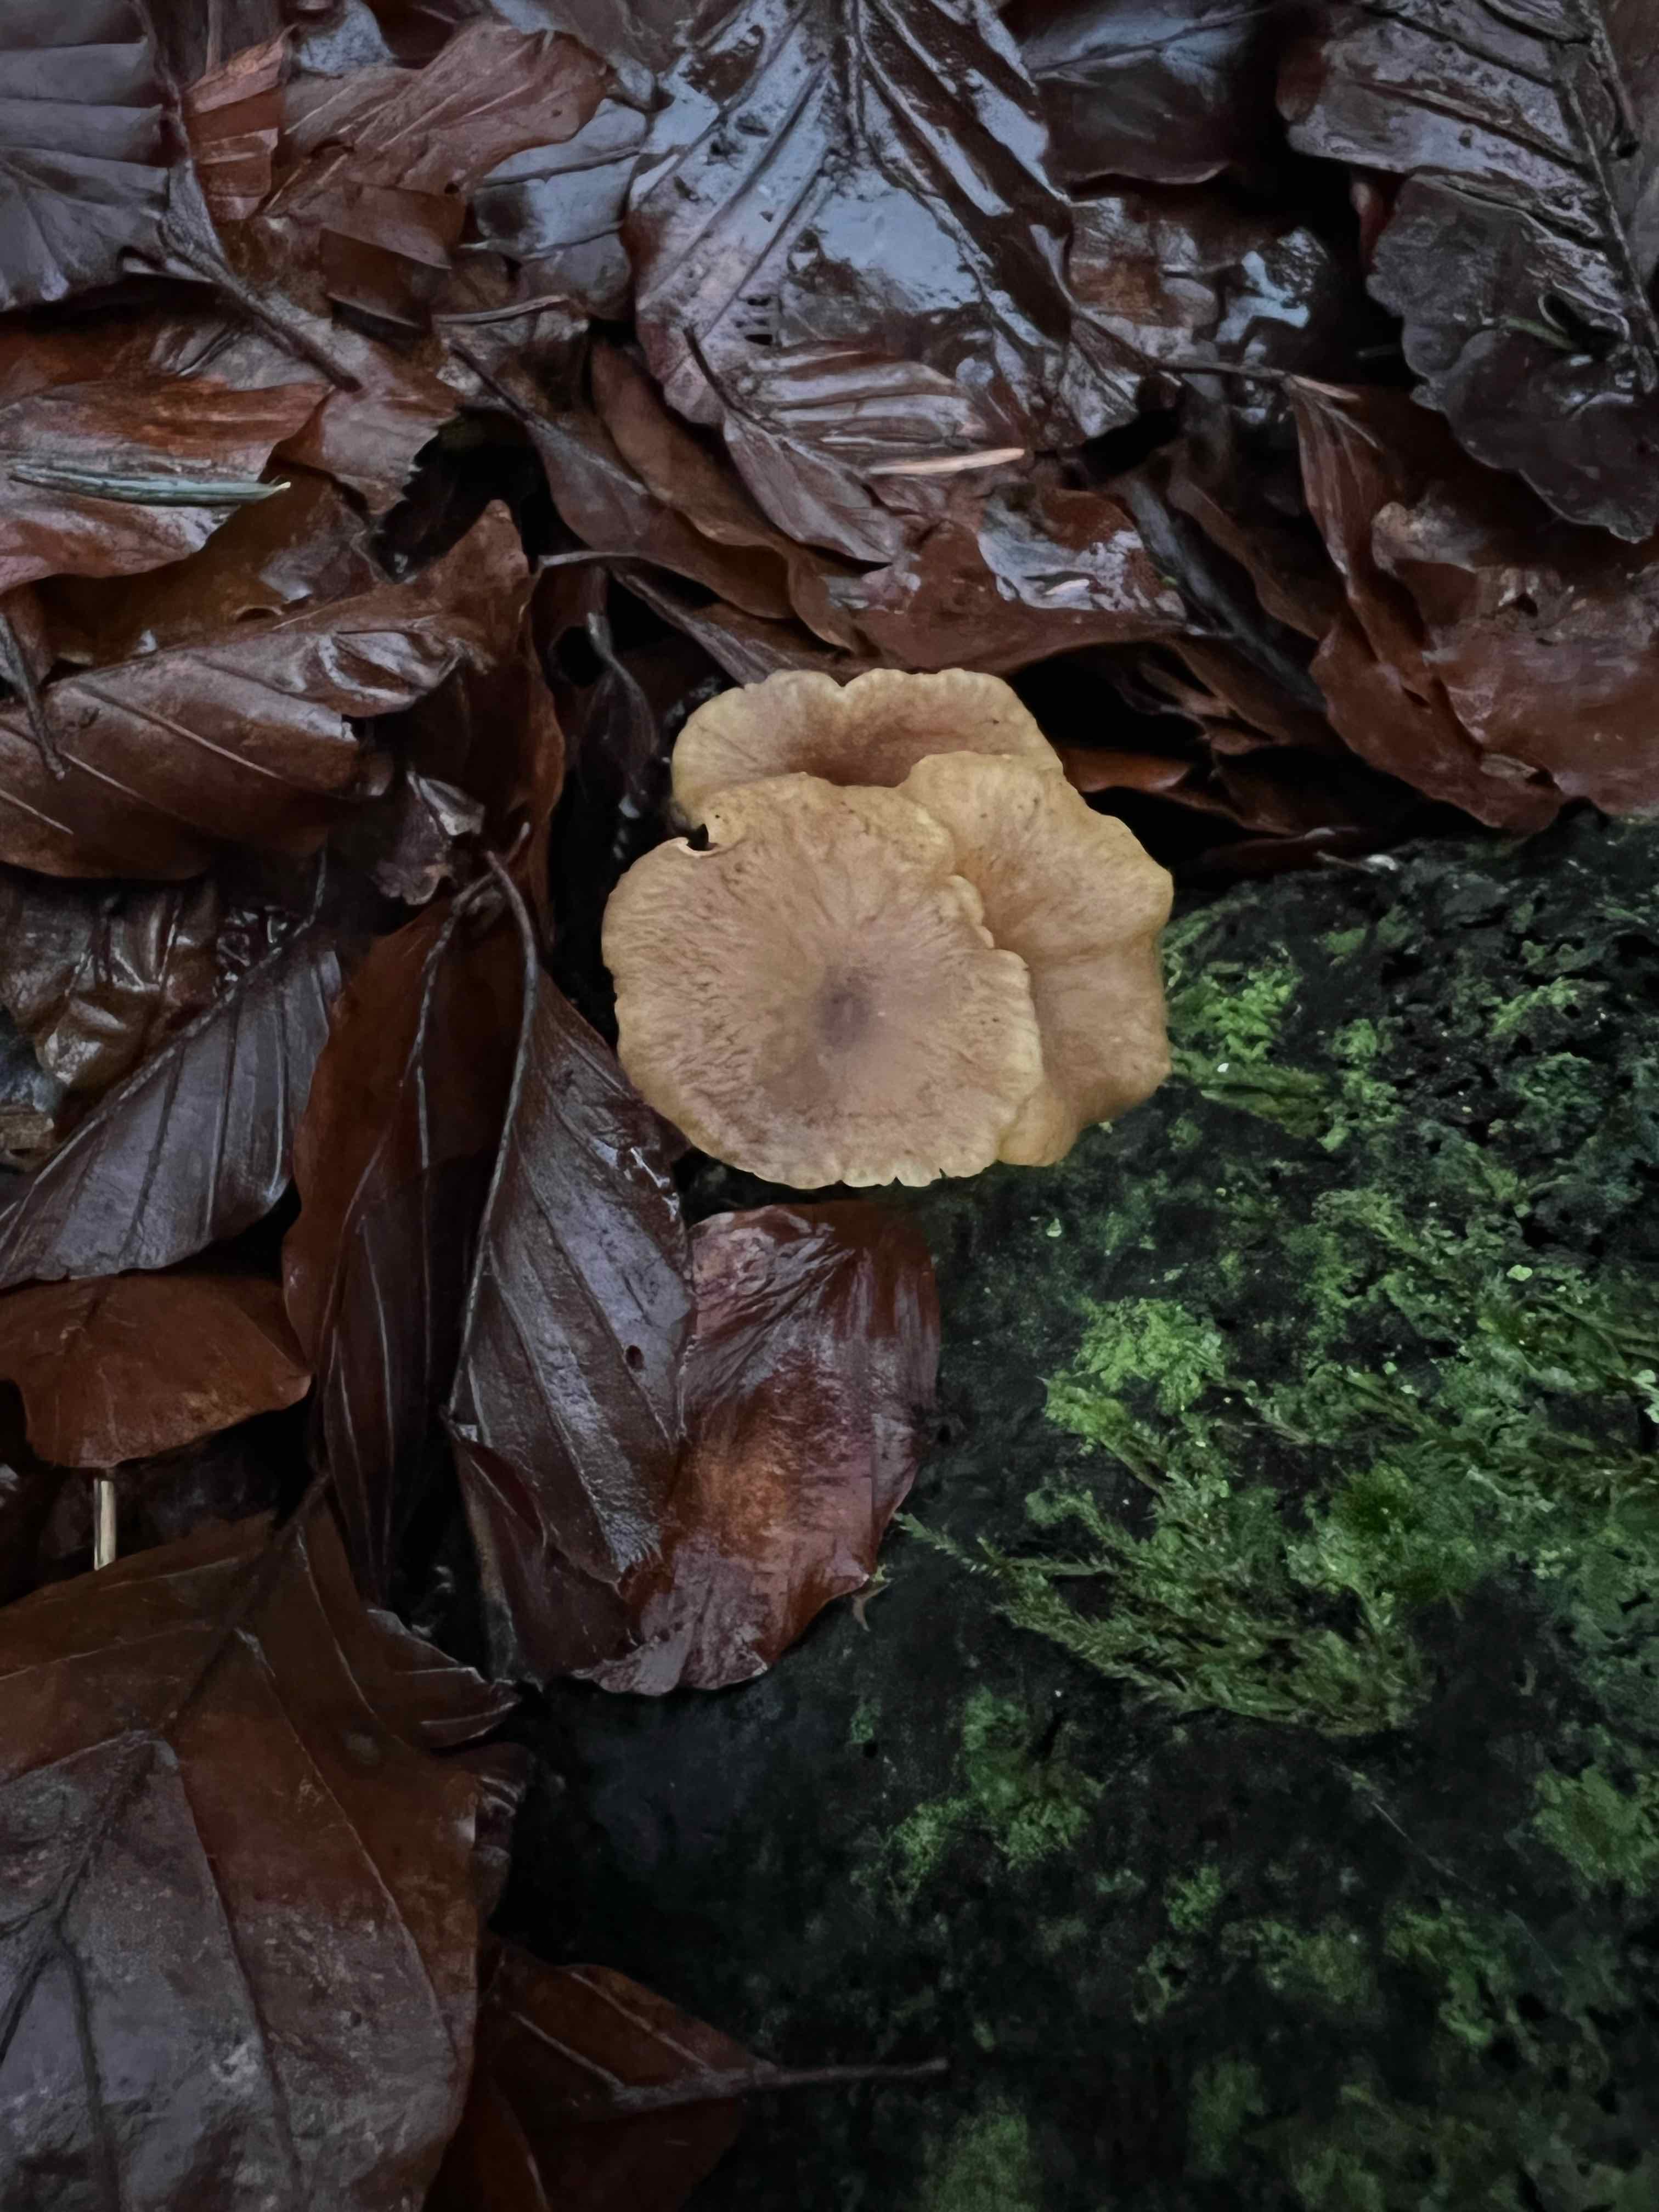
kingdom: Fungi
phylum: Basidiomycota
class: Agaricomycetes
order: Cantharellales
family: Hydnaceae
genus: Craterellus
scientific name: Craterellus tubaeformis
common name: tragt-kantarel
